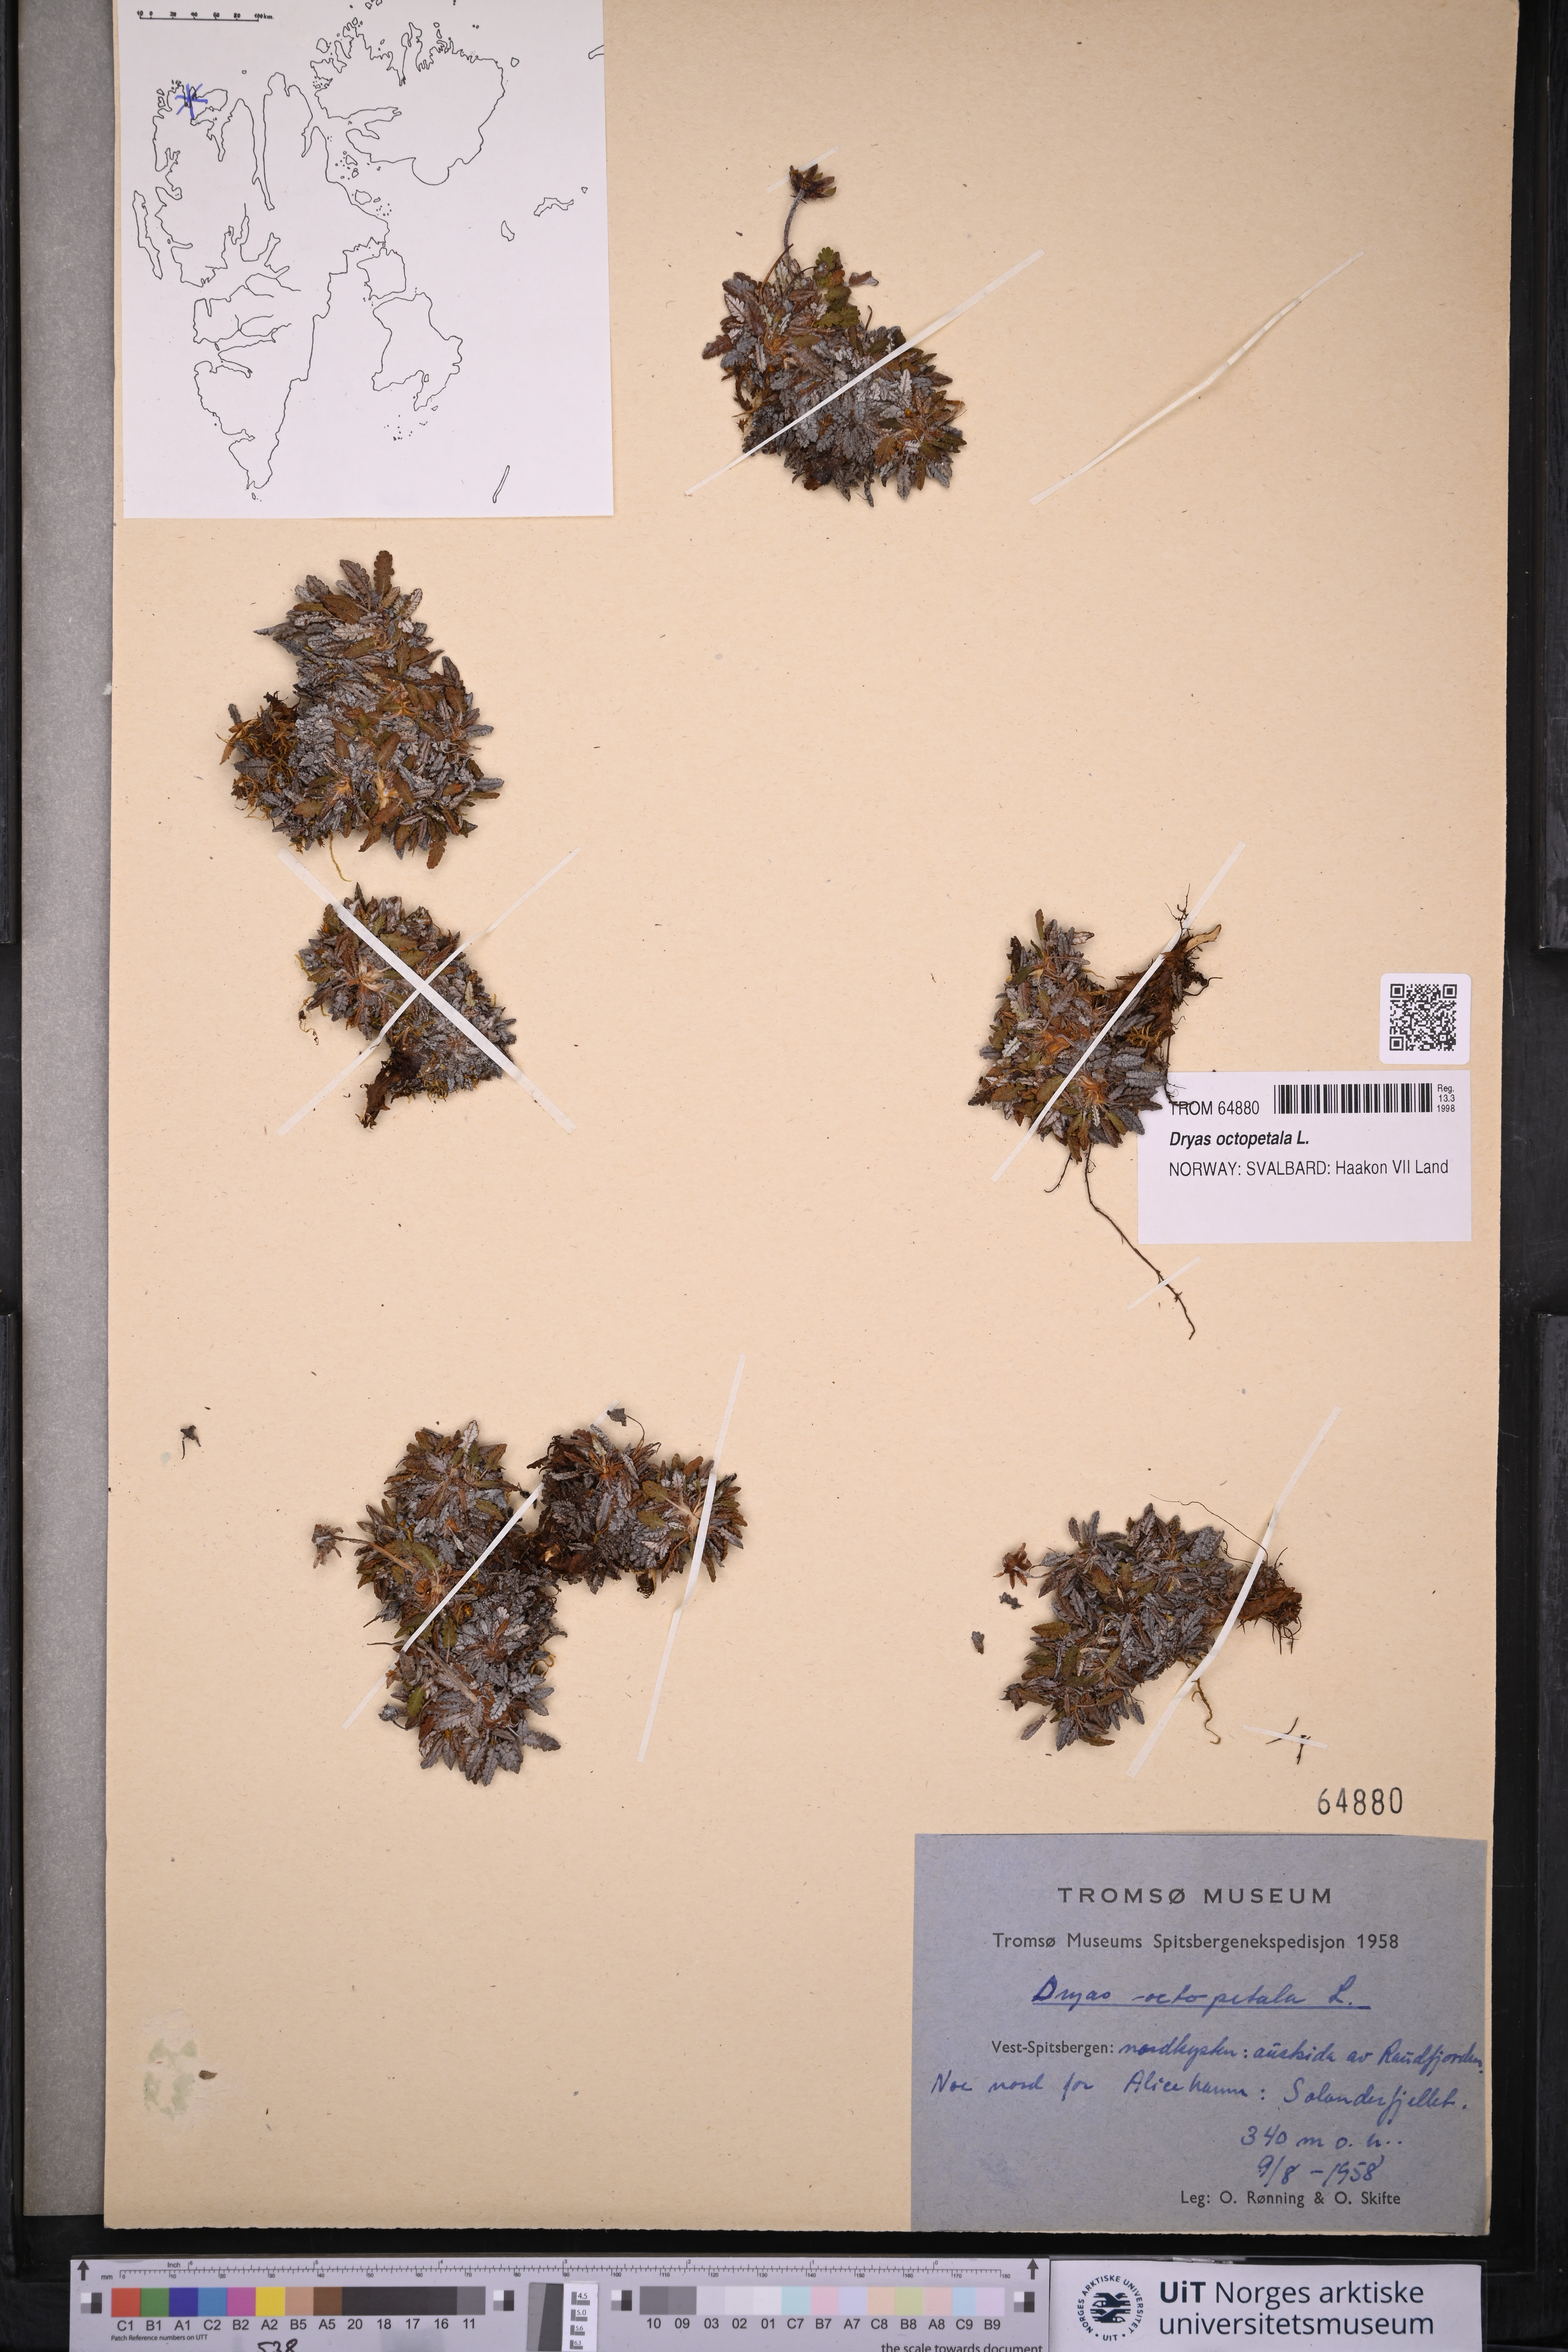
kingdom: Plantae
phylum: Tracheophyta
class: Magnoliopsida
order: Rosales
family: Rosaceae
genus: Dryas
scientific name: Dryas octopetala
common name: Eight-petal mountain-avens
